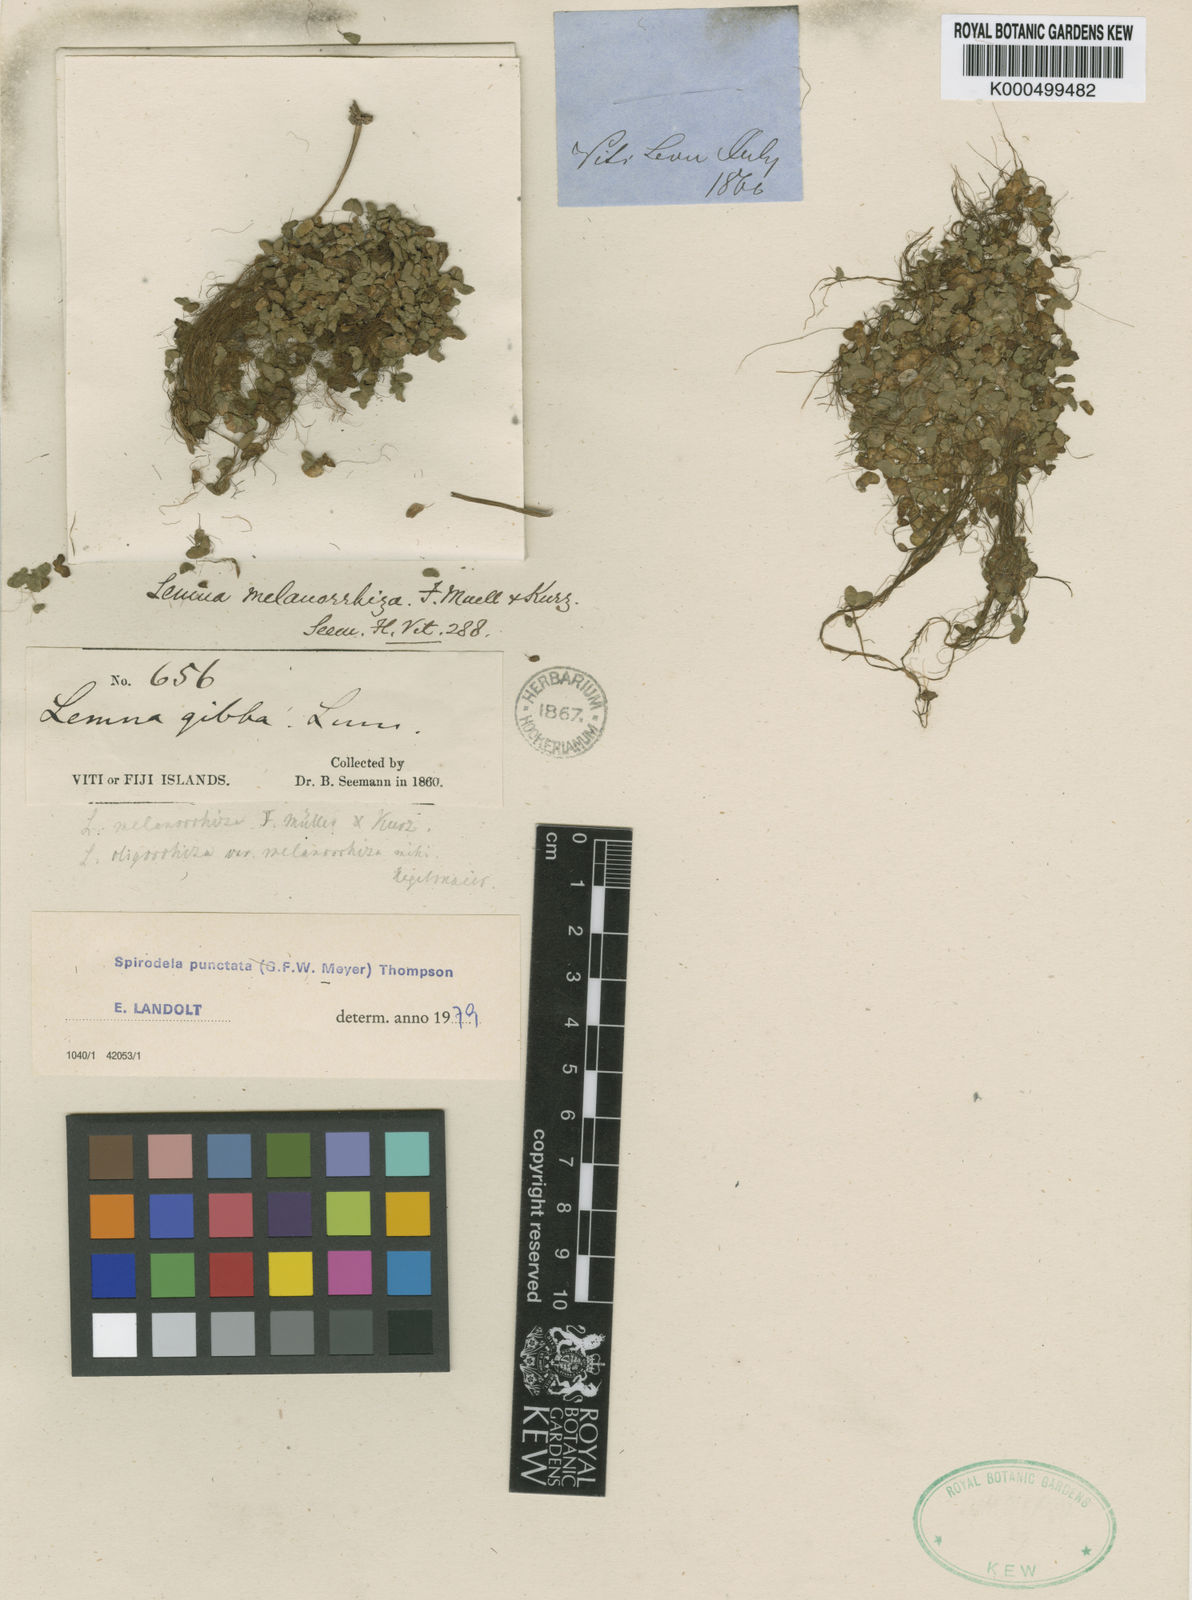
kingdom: Plantae
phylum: Tracheophyta
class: Liliopsida
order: Alismatales
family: Araceae
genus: Spirodela
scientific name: Spirodela punctata
